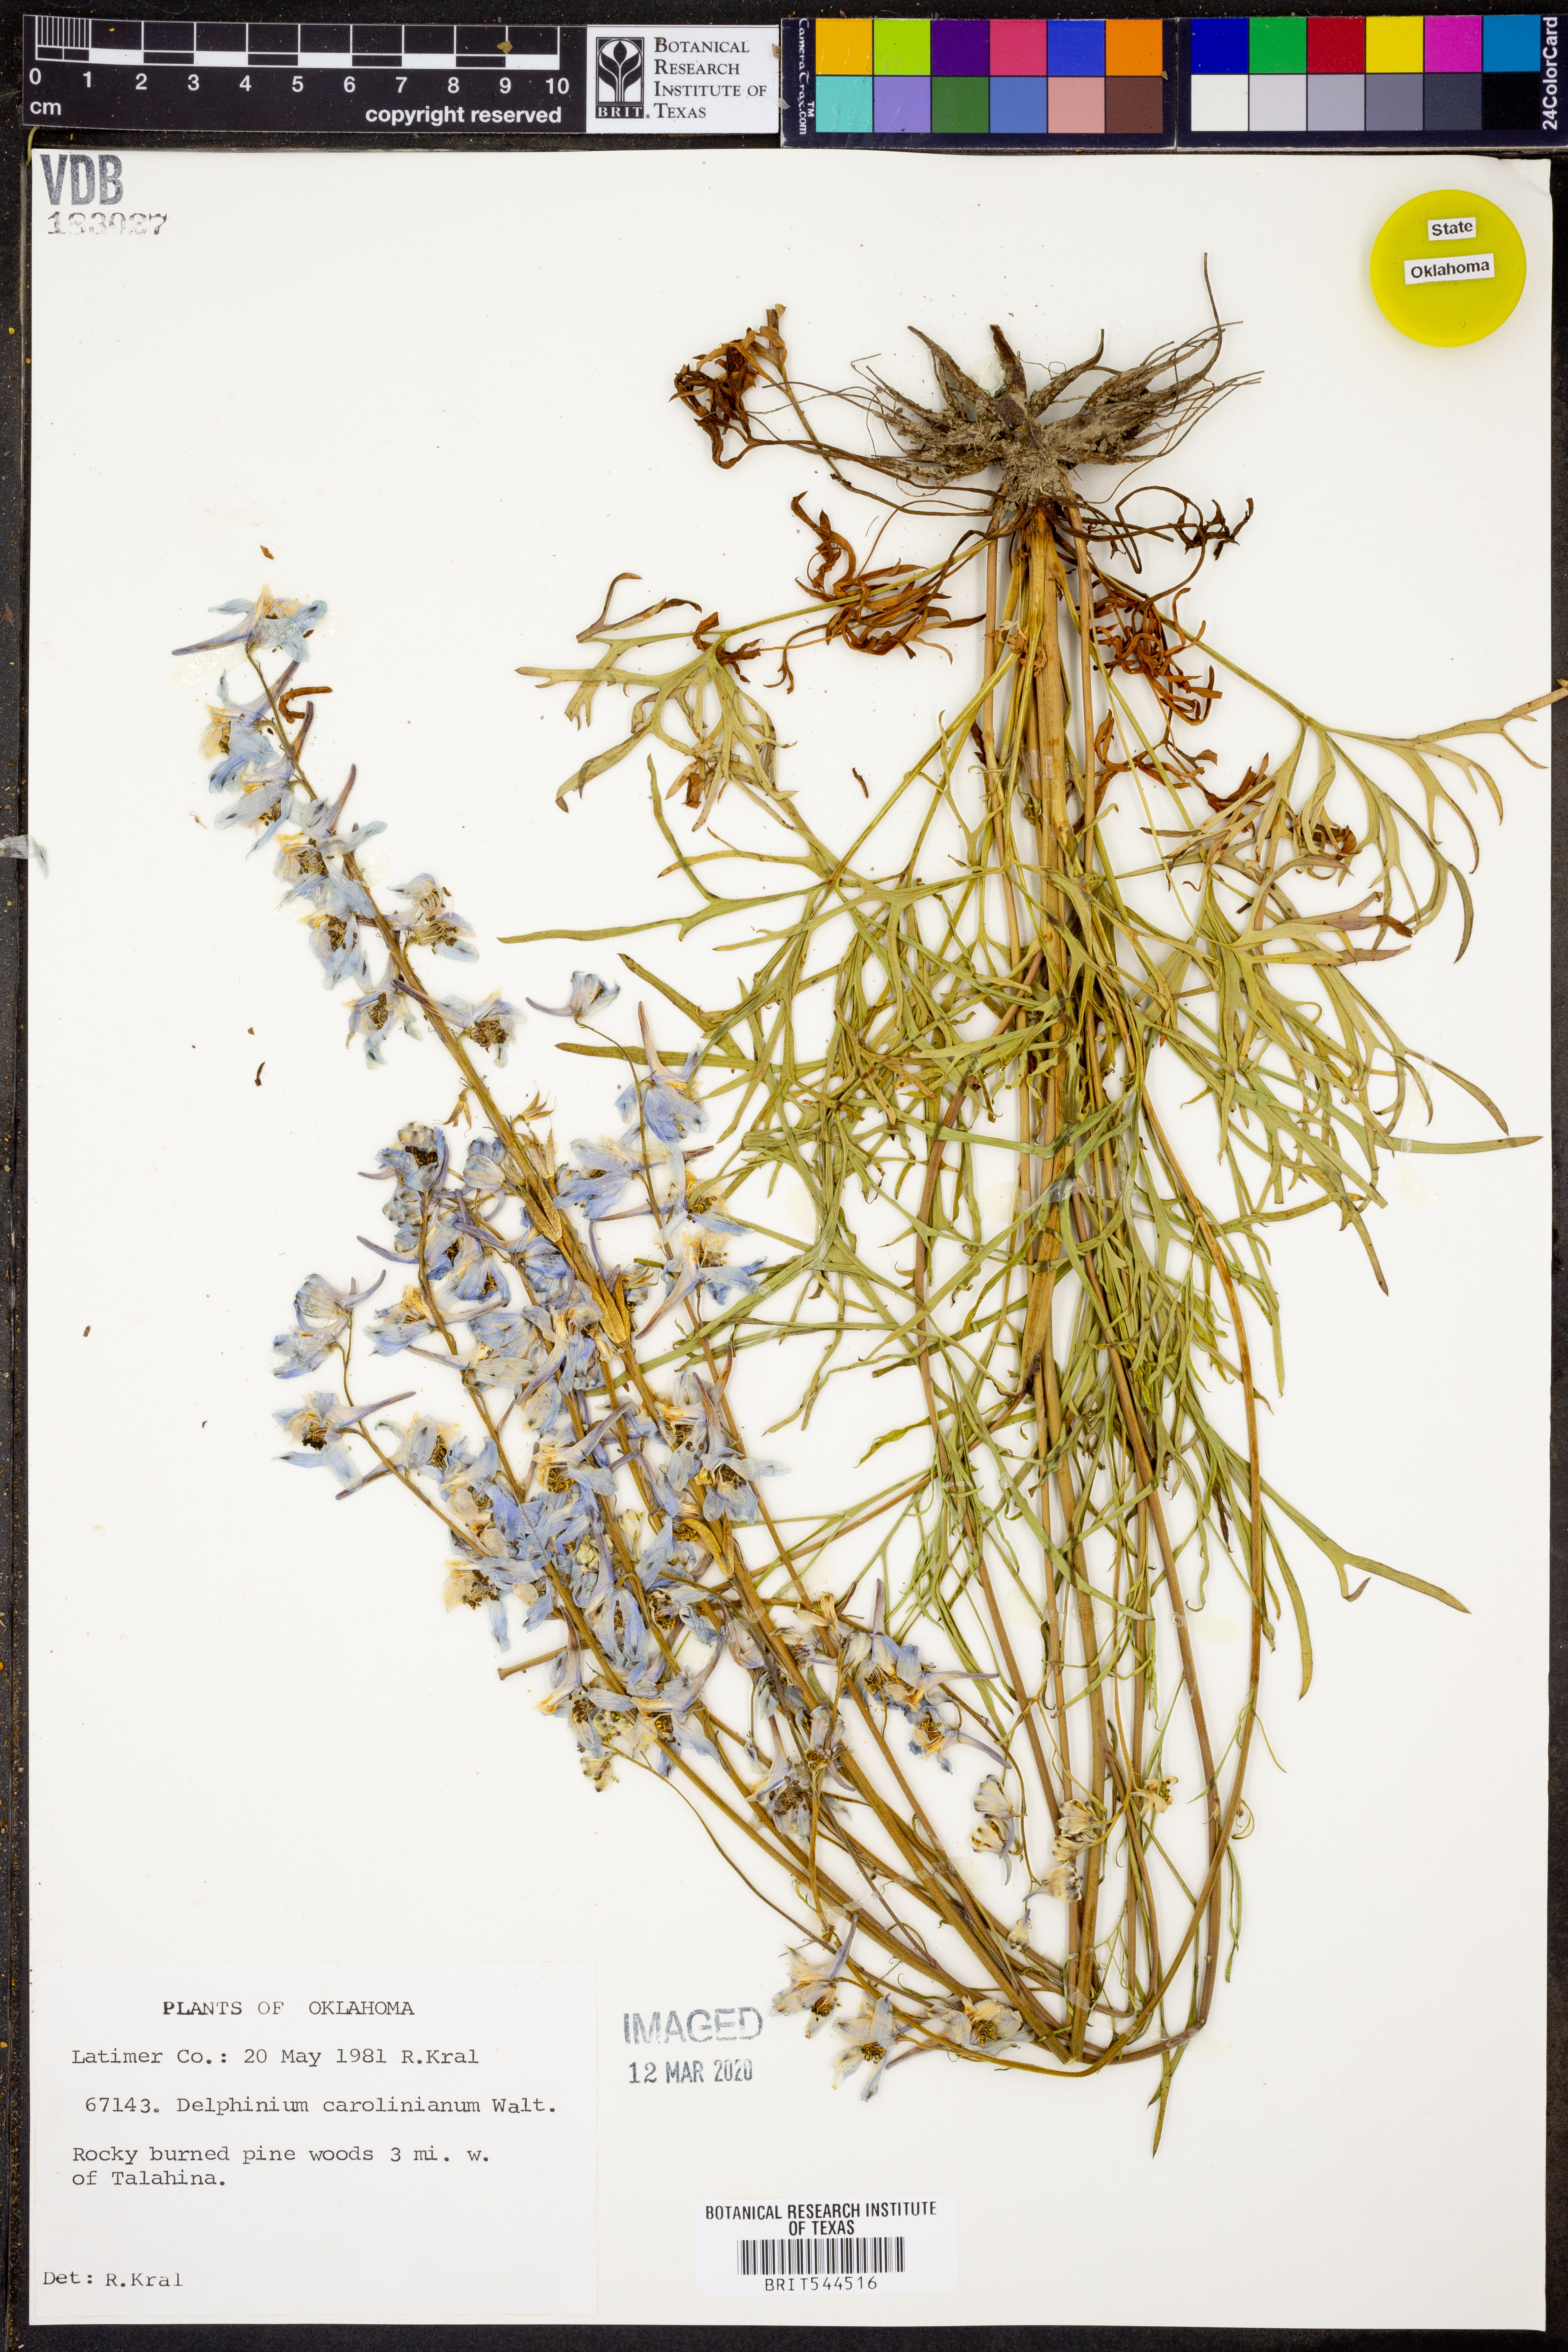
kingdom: Plantae
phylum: Tracheophyta
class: Magnoliopsida
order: Ranunculales
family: Ranunculaceae
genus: Delphinium
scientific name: Delphinium carolinianum
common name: Carolina larkspur
